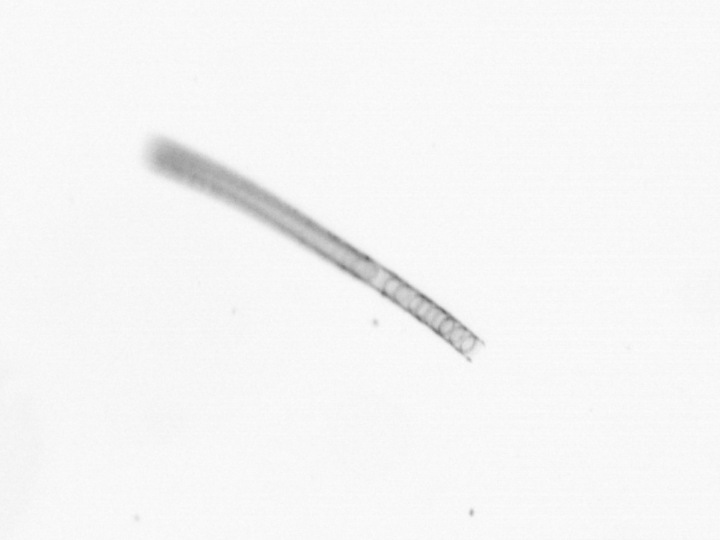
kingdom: Chromista
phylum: Ochrophyta
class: Bacillariophyceae
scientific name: Bacillariophyceae
